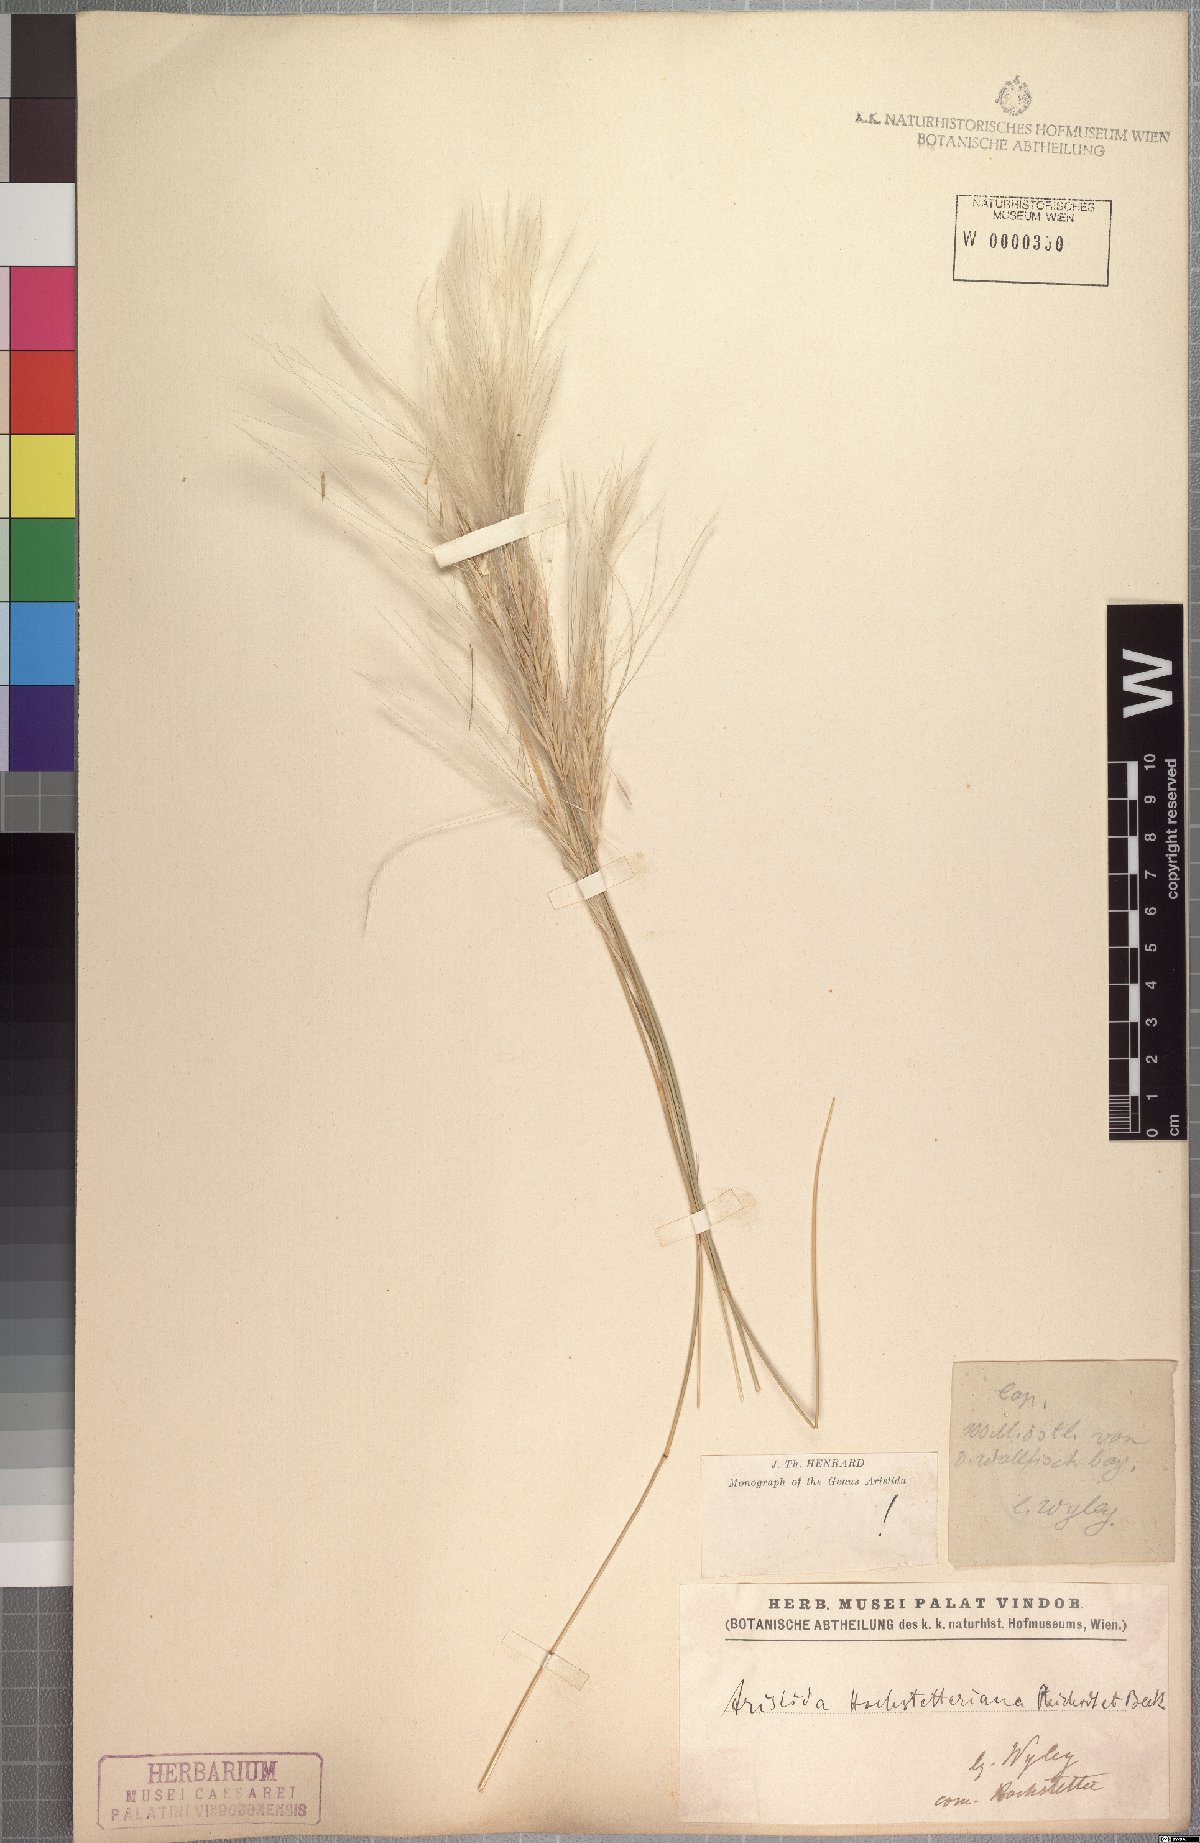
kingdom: Plantae
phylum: Tracheophyta
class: Liliopsida
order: Poales
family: Poaceae
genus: Stipagrostis
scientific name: Stipagrostis hochstetteriana
